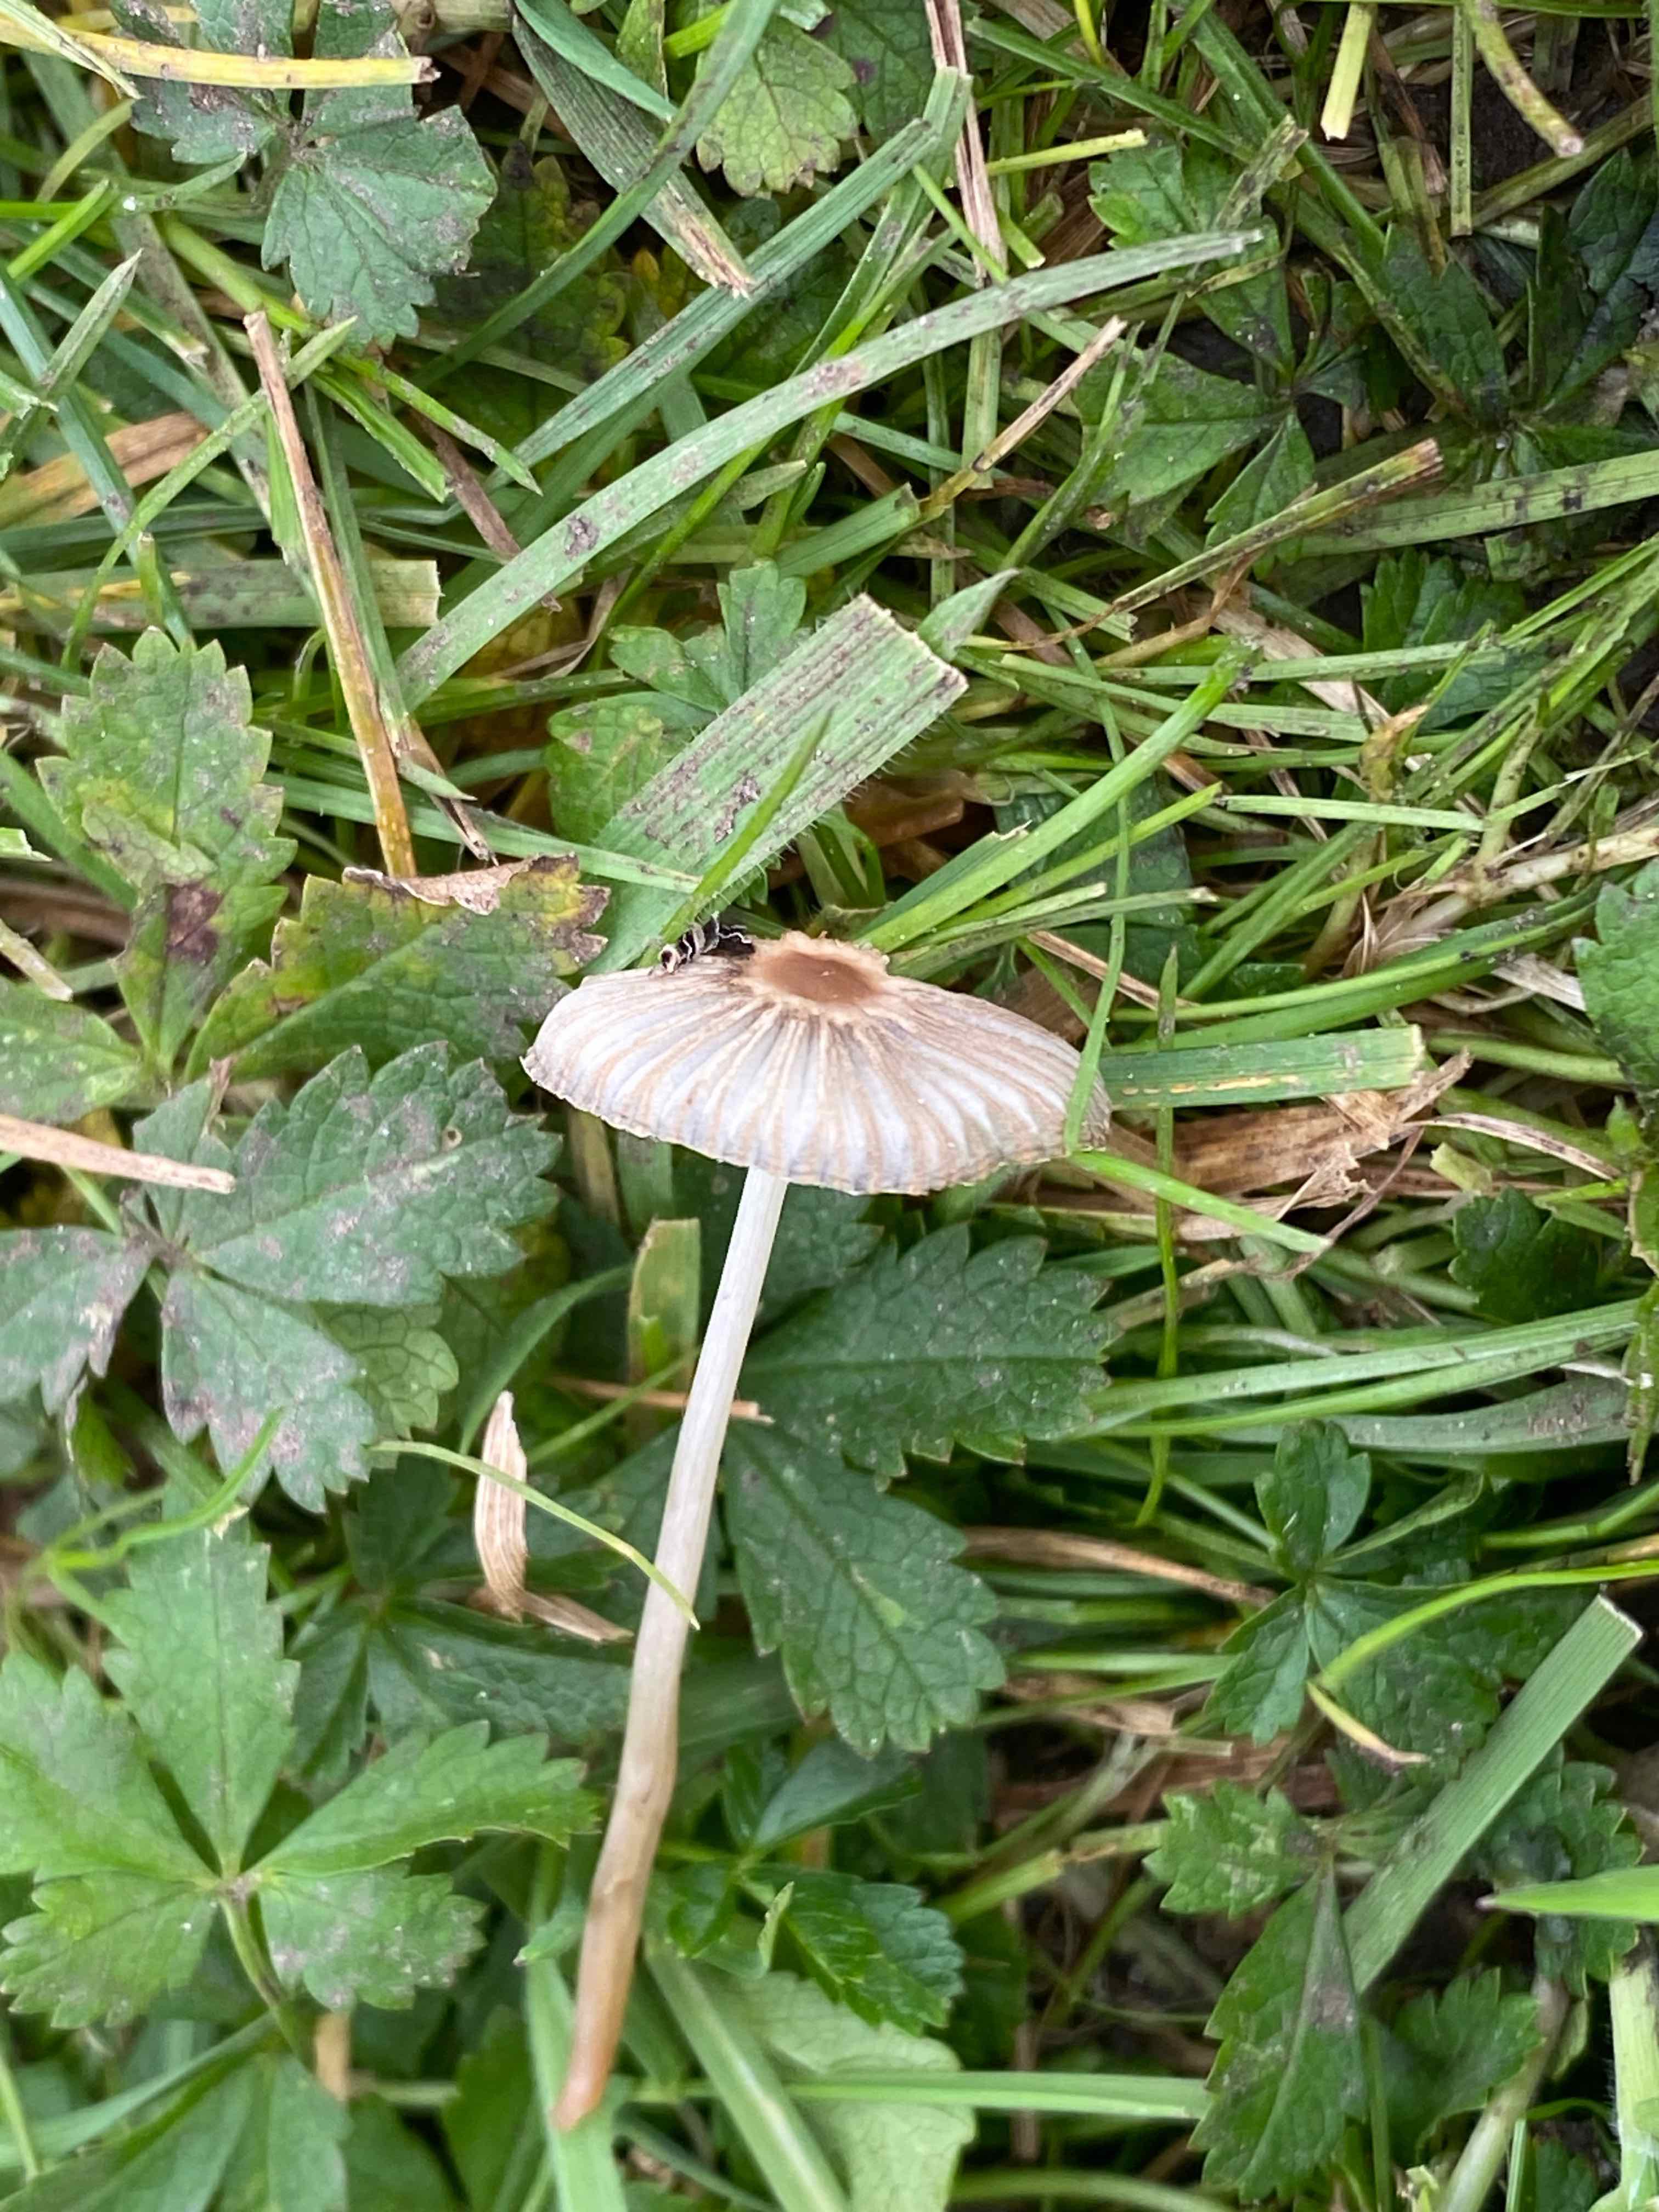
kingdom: Fungi
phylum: Basidiomycota
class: Agaricomycetes
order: Agaricales
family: Psathyrellaceae
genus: Parasola
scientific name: Parasola plicatilis
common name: plæne-hjulhat
